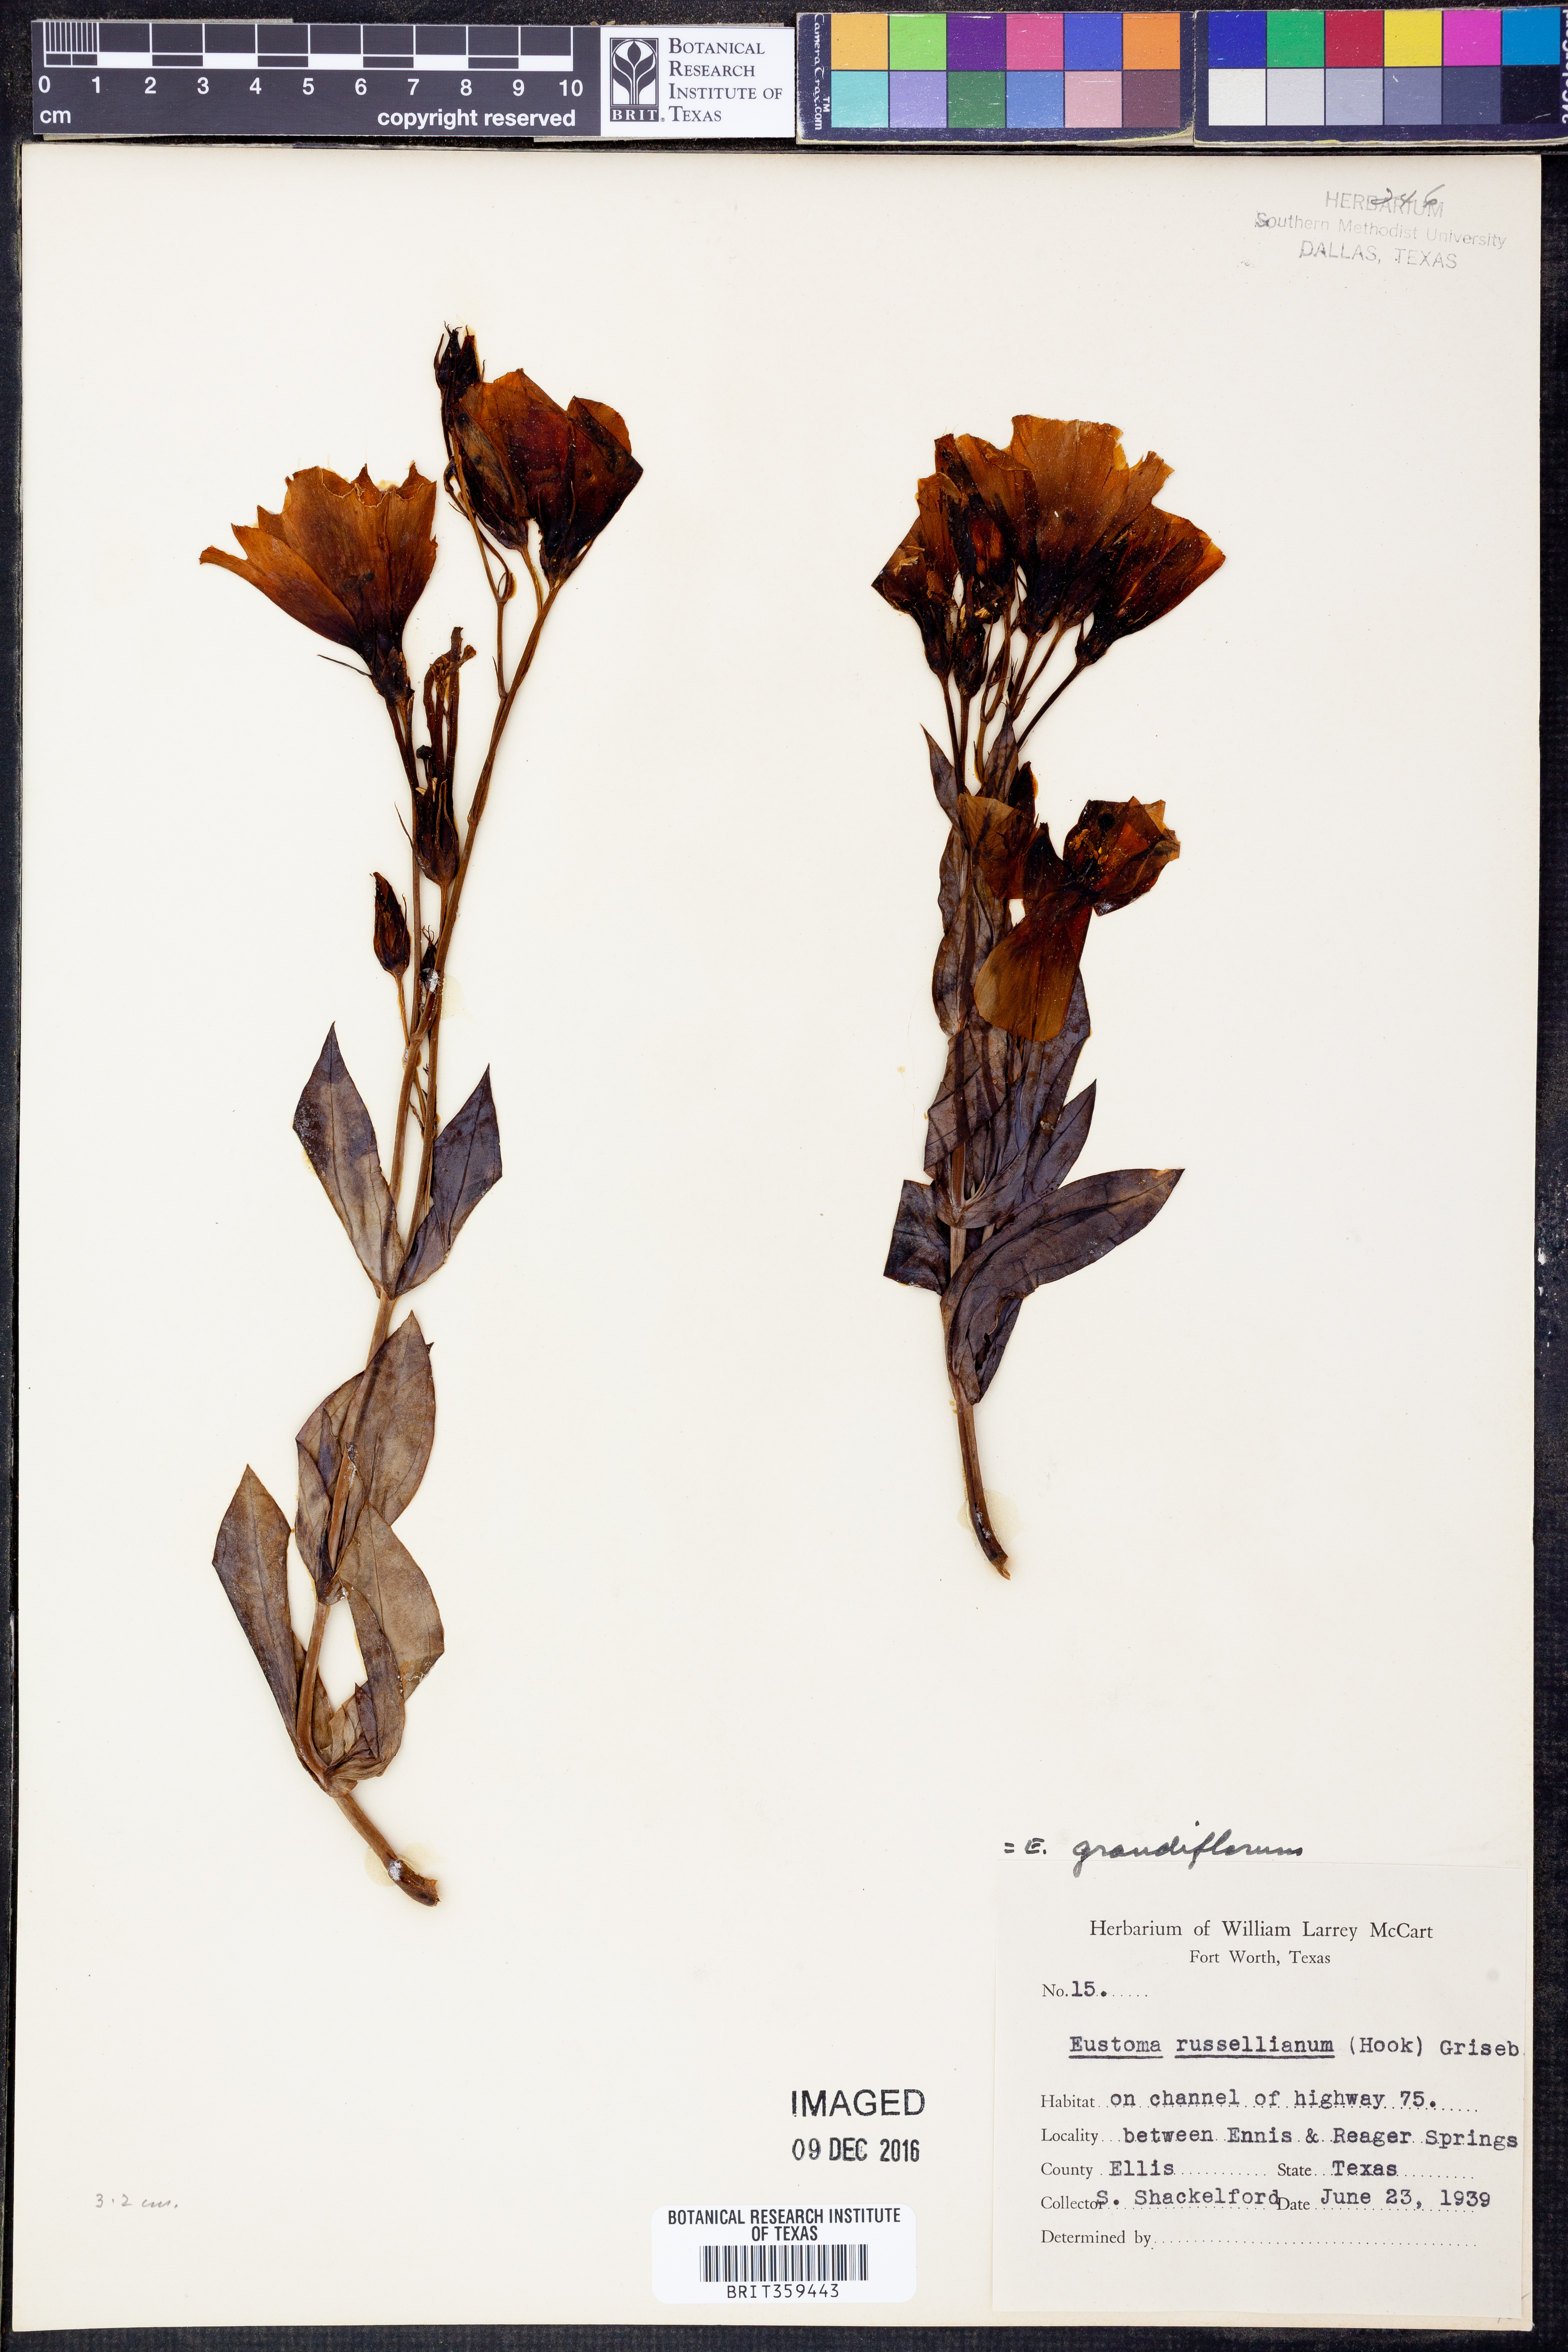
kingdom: Plantae
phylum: Tracheophyta
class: Magnoliopsida
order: Gentianales
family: Gentianaceae
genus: Eustoma
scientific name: Eustoma russellianum
